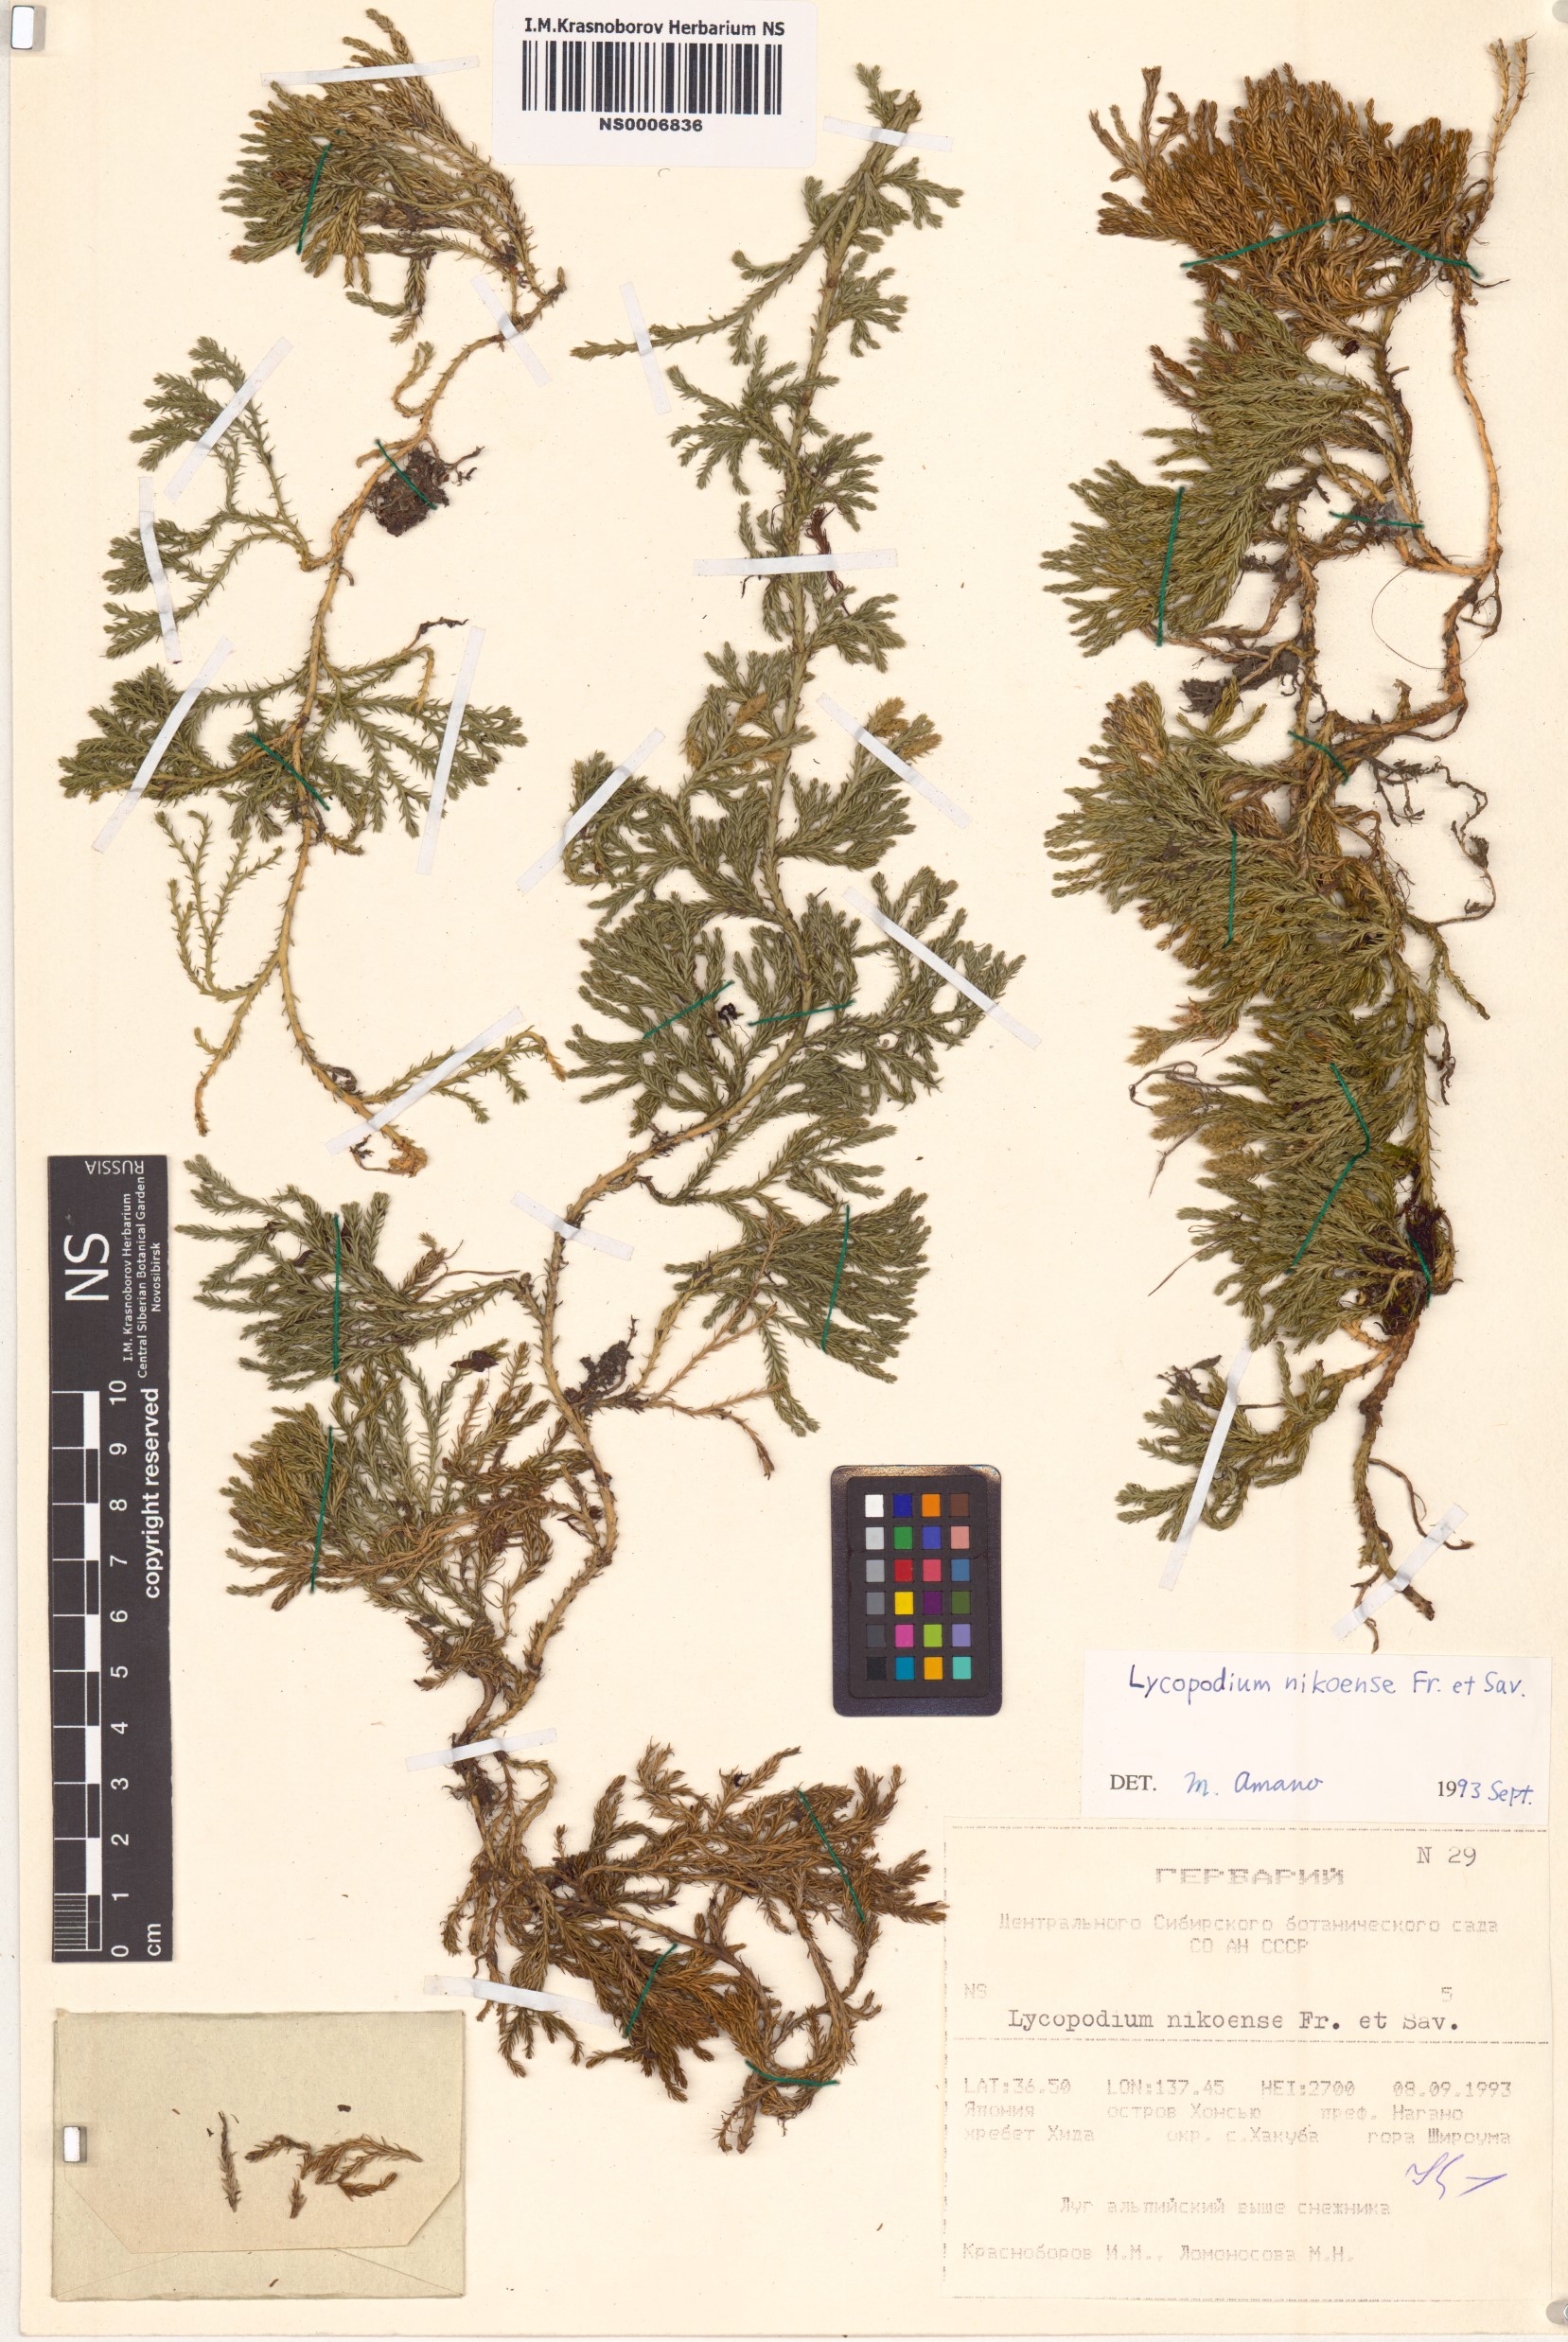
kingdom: Plantae
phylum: Tracheophyta
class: Lycopodiopsida
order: Lycopodiales
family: Lycopodiaceae
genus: Diphasiastrum
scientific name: Diphasiastrum nikoense
